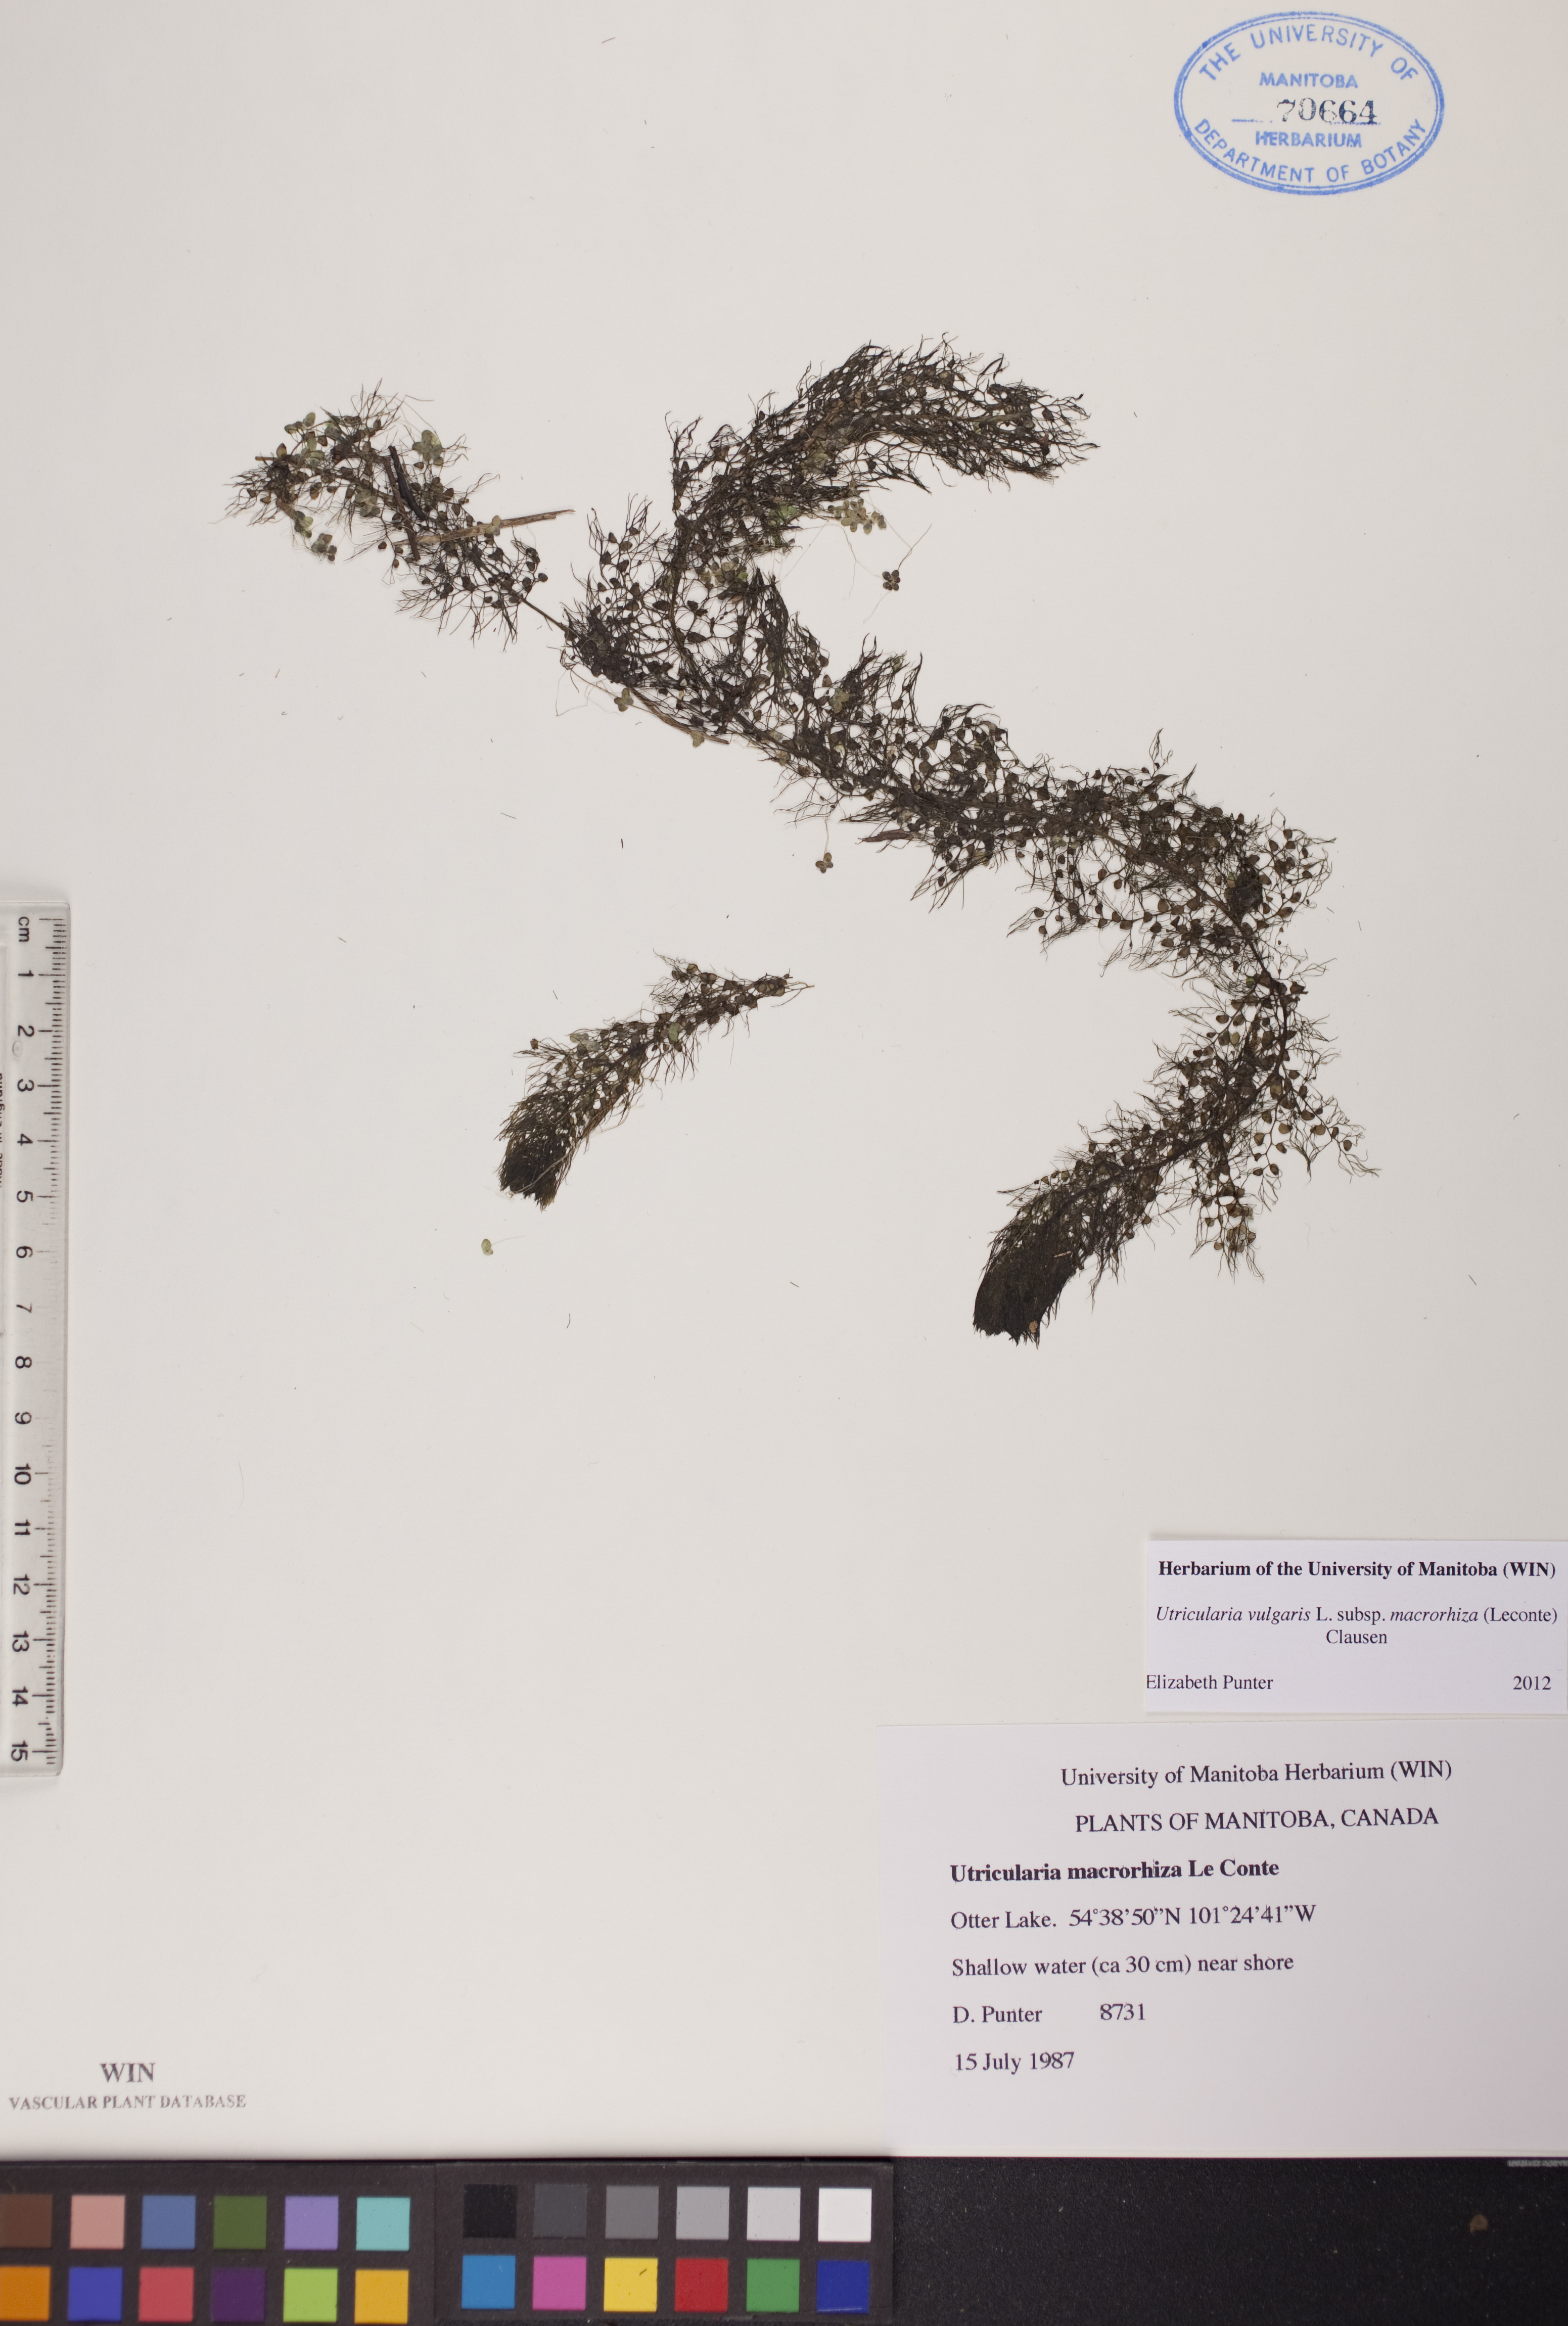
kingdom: Plantae
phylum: Tracheophyta
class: Magnoliopsida
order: Lamiales
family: Lentibulariaceae
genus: Utricularia
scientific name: Utricularia macrorhiza
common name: Common bladderwort
